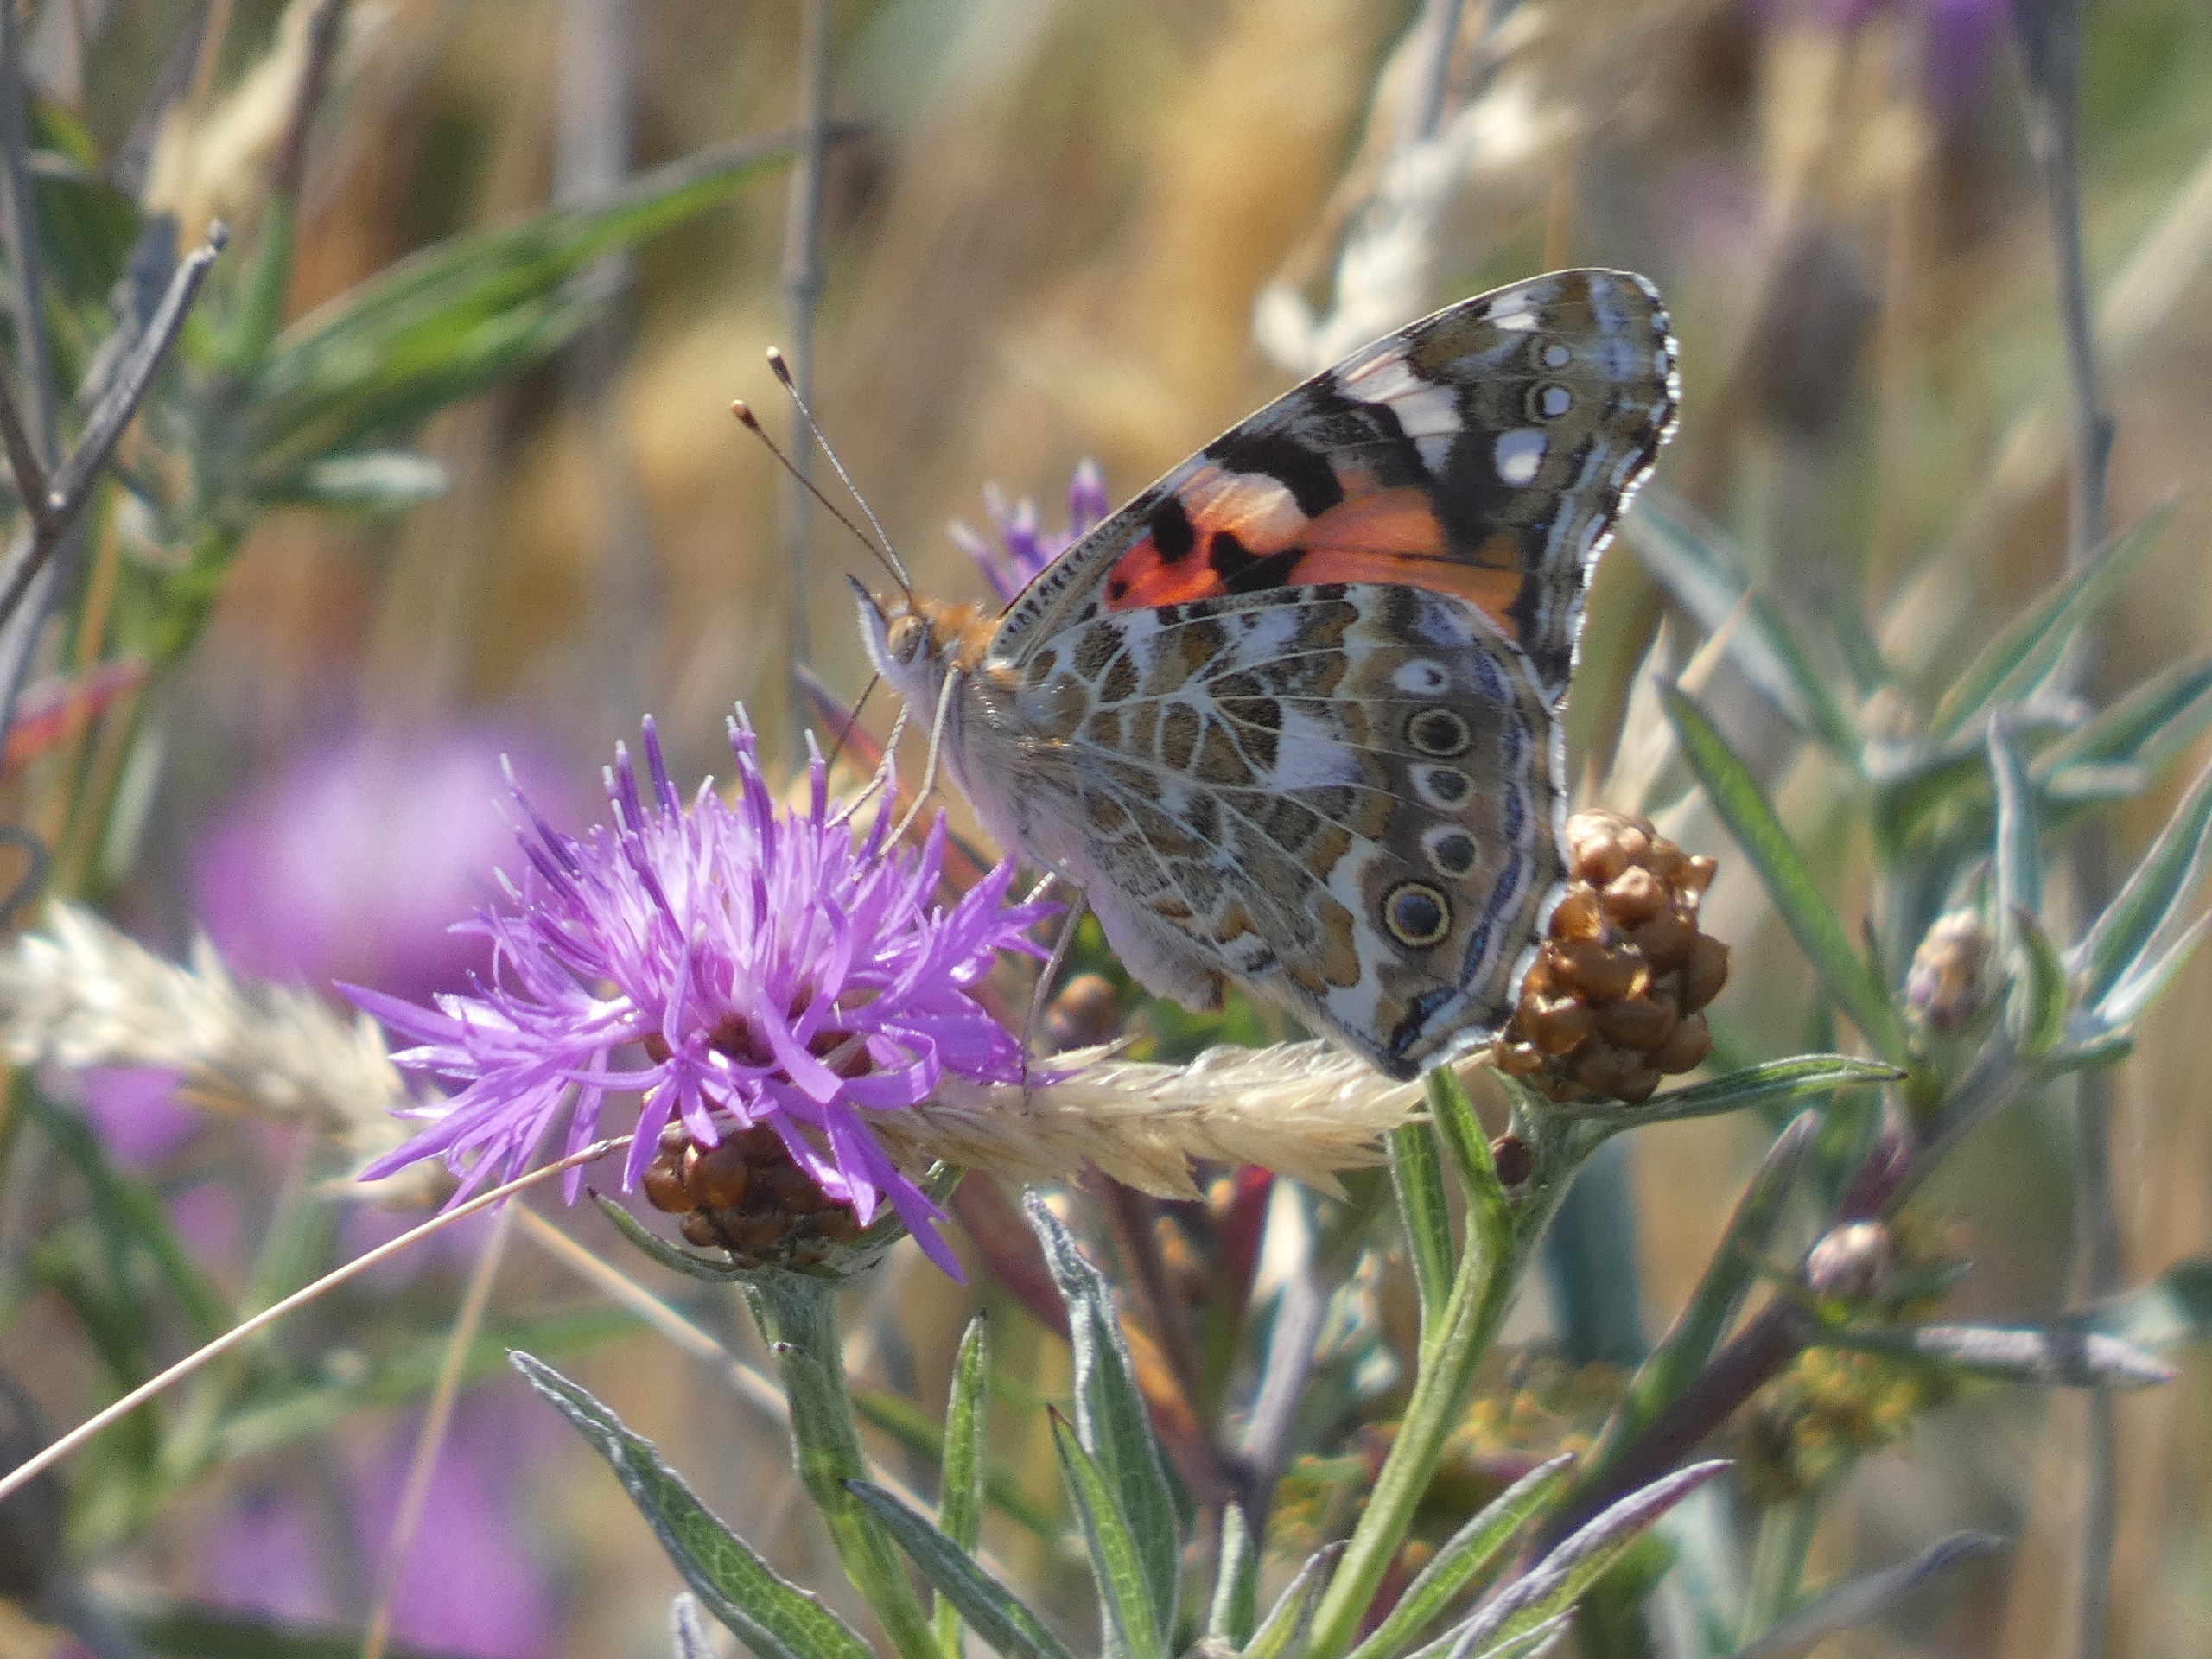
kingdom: Animalia
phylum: Arthropoda
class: Insecta
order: Lepidoptera
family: Nymphalidae
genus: Vanessa
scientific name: Vanessa cardui
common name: Tidselsommerfugl
